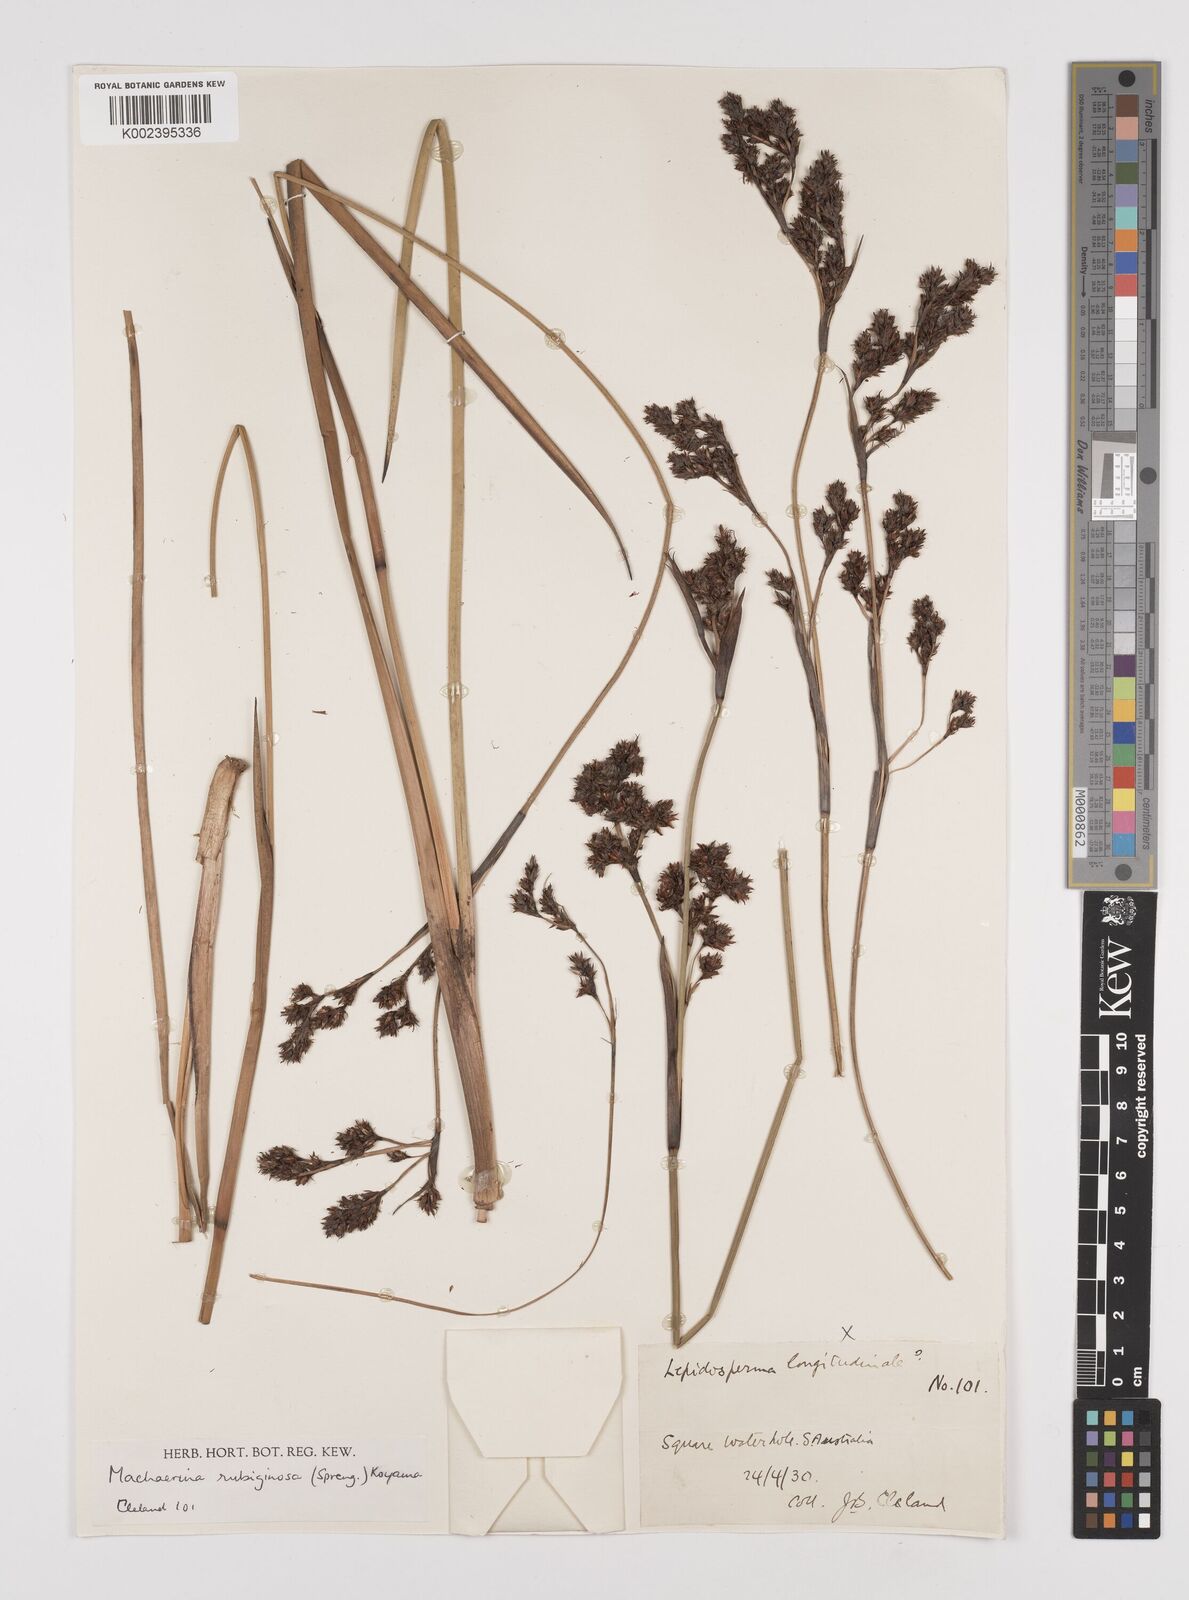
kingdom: Plantae
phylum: Tracheophyta
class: Liliopsida
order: Poales
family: Cyperaceae
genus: Machaerina
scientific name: Machaerina rubiginosa
